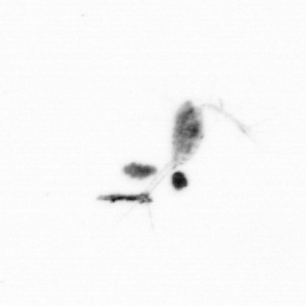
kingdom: Animalia
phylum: Arthropoda
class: Copepoda
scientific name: Copepoda
